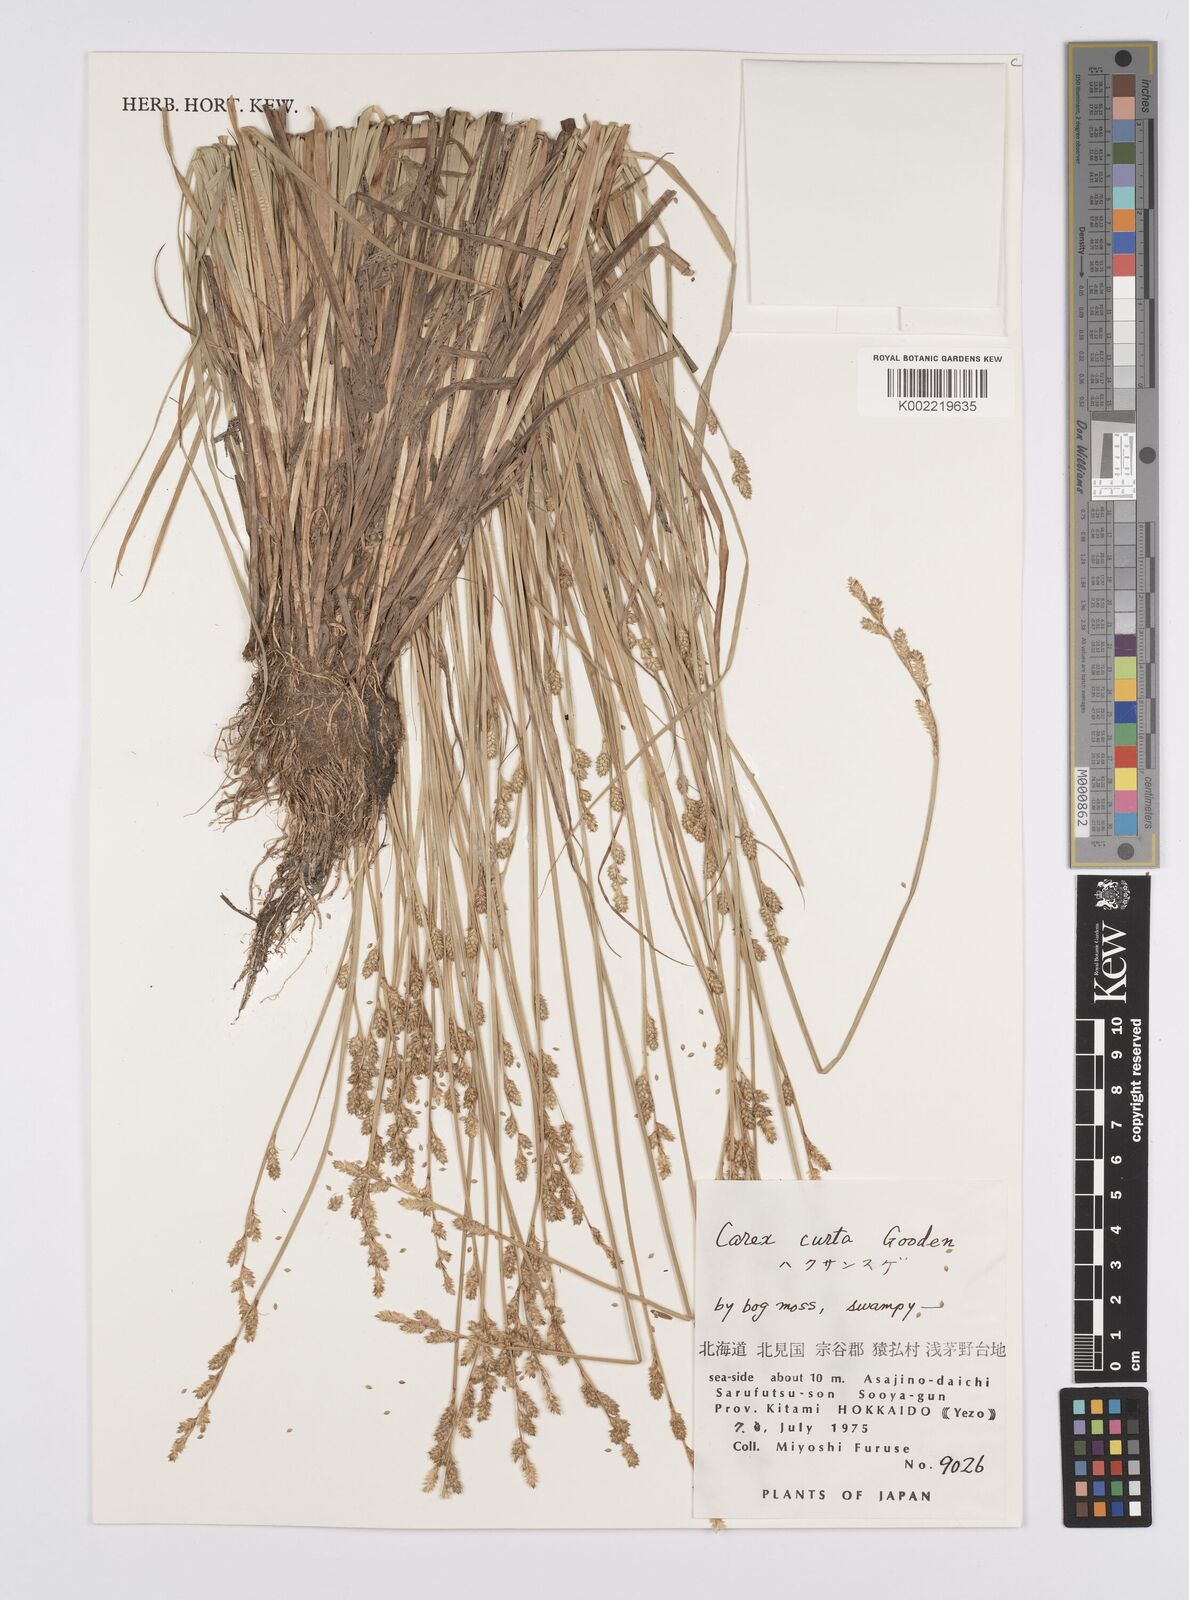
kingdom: Plantae
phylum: Tracheophyta
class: Liliopsida
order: Poales
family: Cyperaceae
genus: Carex
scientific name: Carex canescens
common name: White sedge
